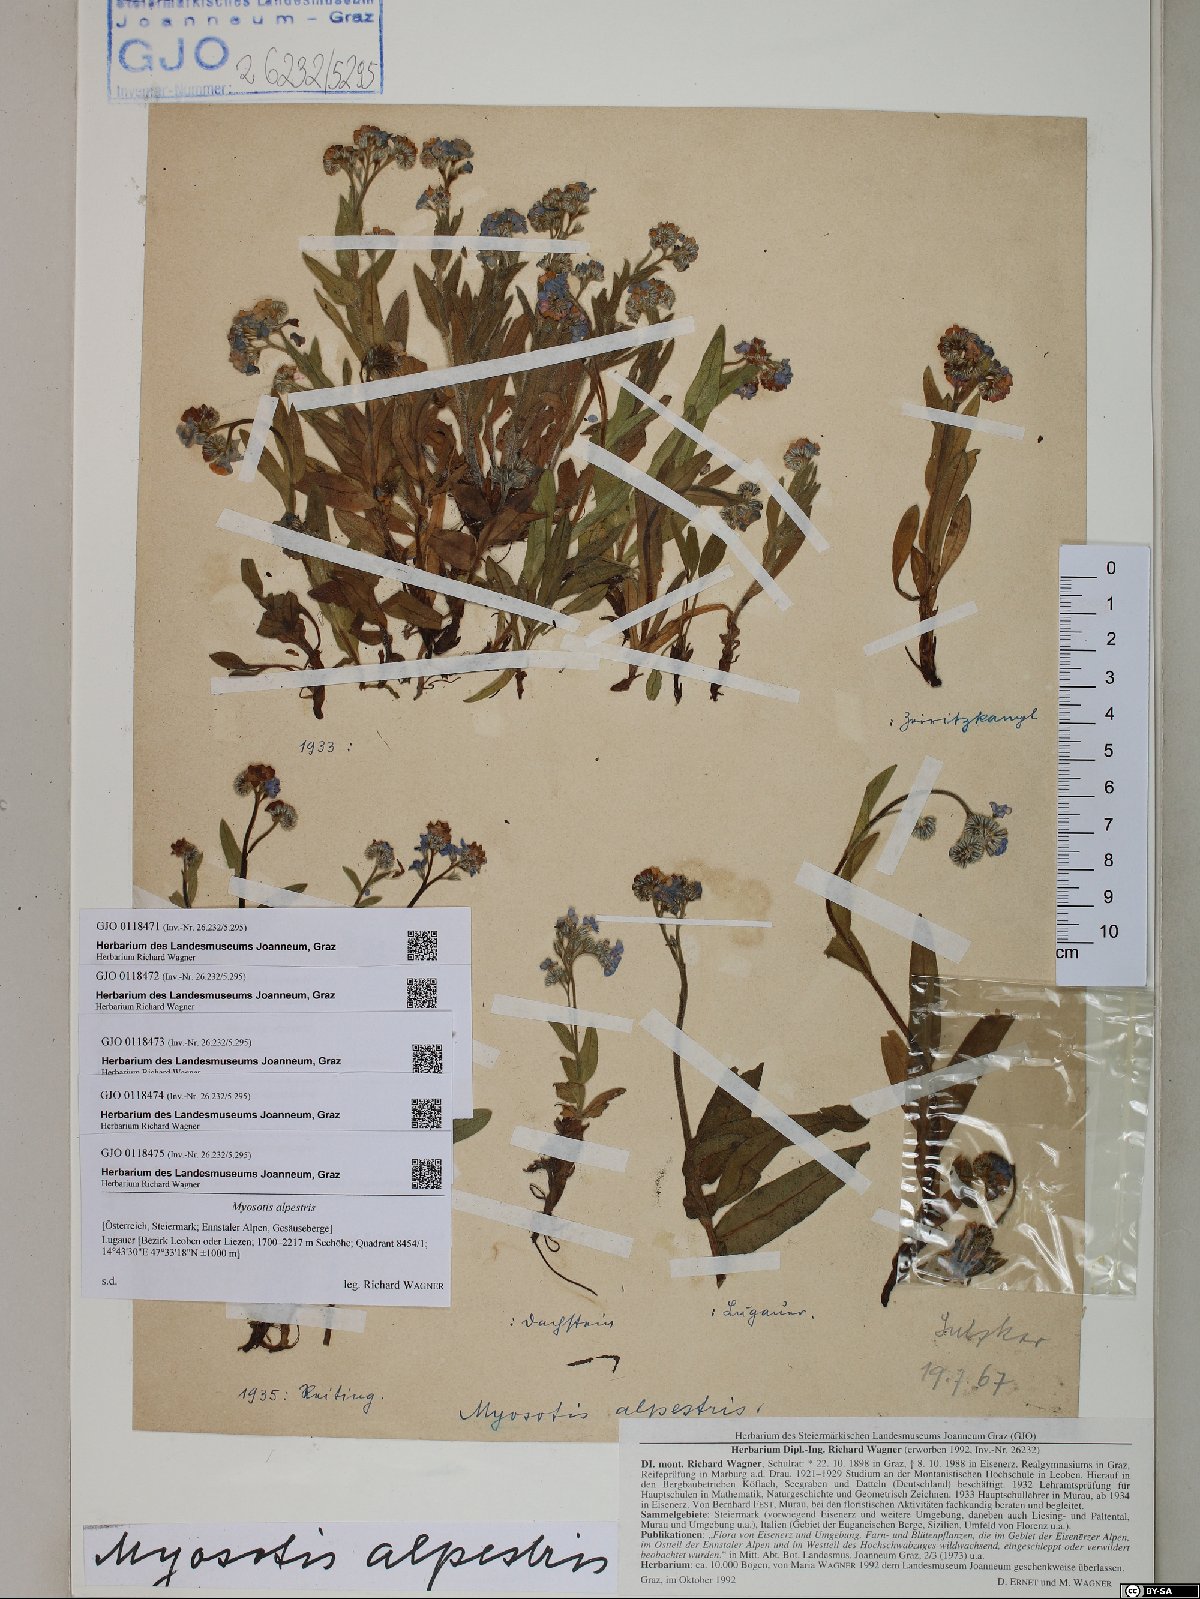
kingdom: Plantae
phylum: Tracheophyta
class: Magnoliopsida
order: Boraginales
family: Boraginaceae
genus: Myosotis
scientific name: Myosotis alpestris
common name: Alpine forget-me-not
